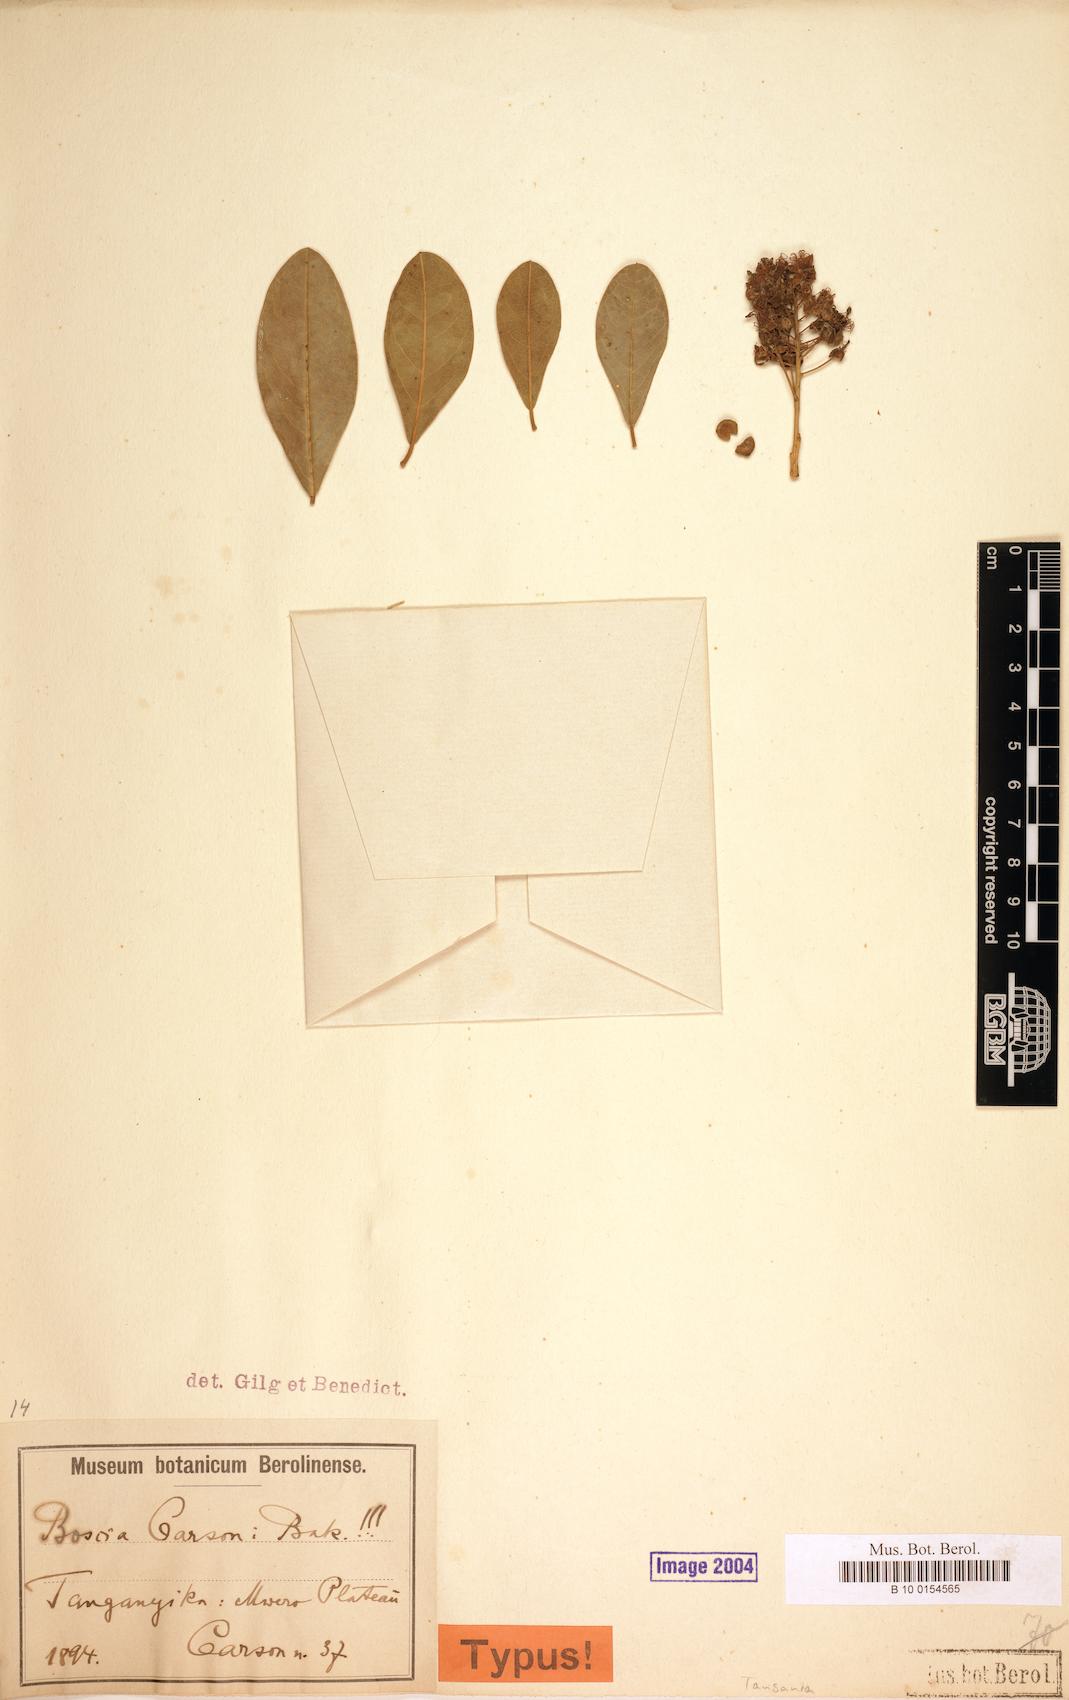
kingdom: Plantae
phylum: Tracheophyta
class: Magnoliopsida
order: Brassicales
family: Capparaceae
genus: Boscia
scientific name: Boscia mossambicensis
